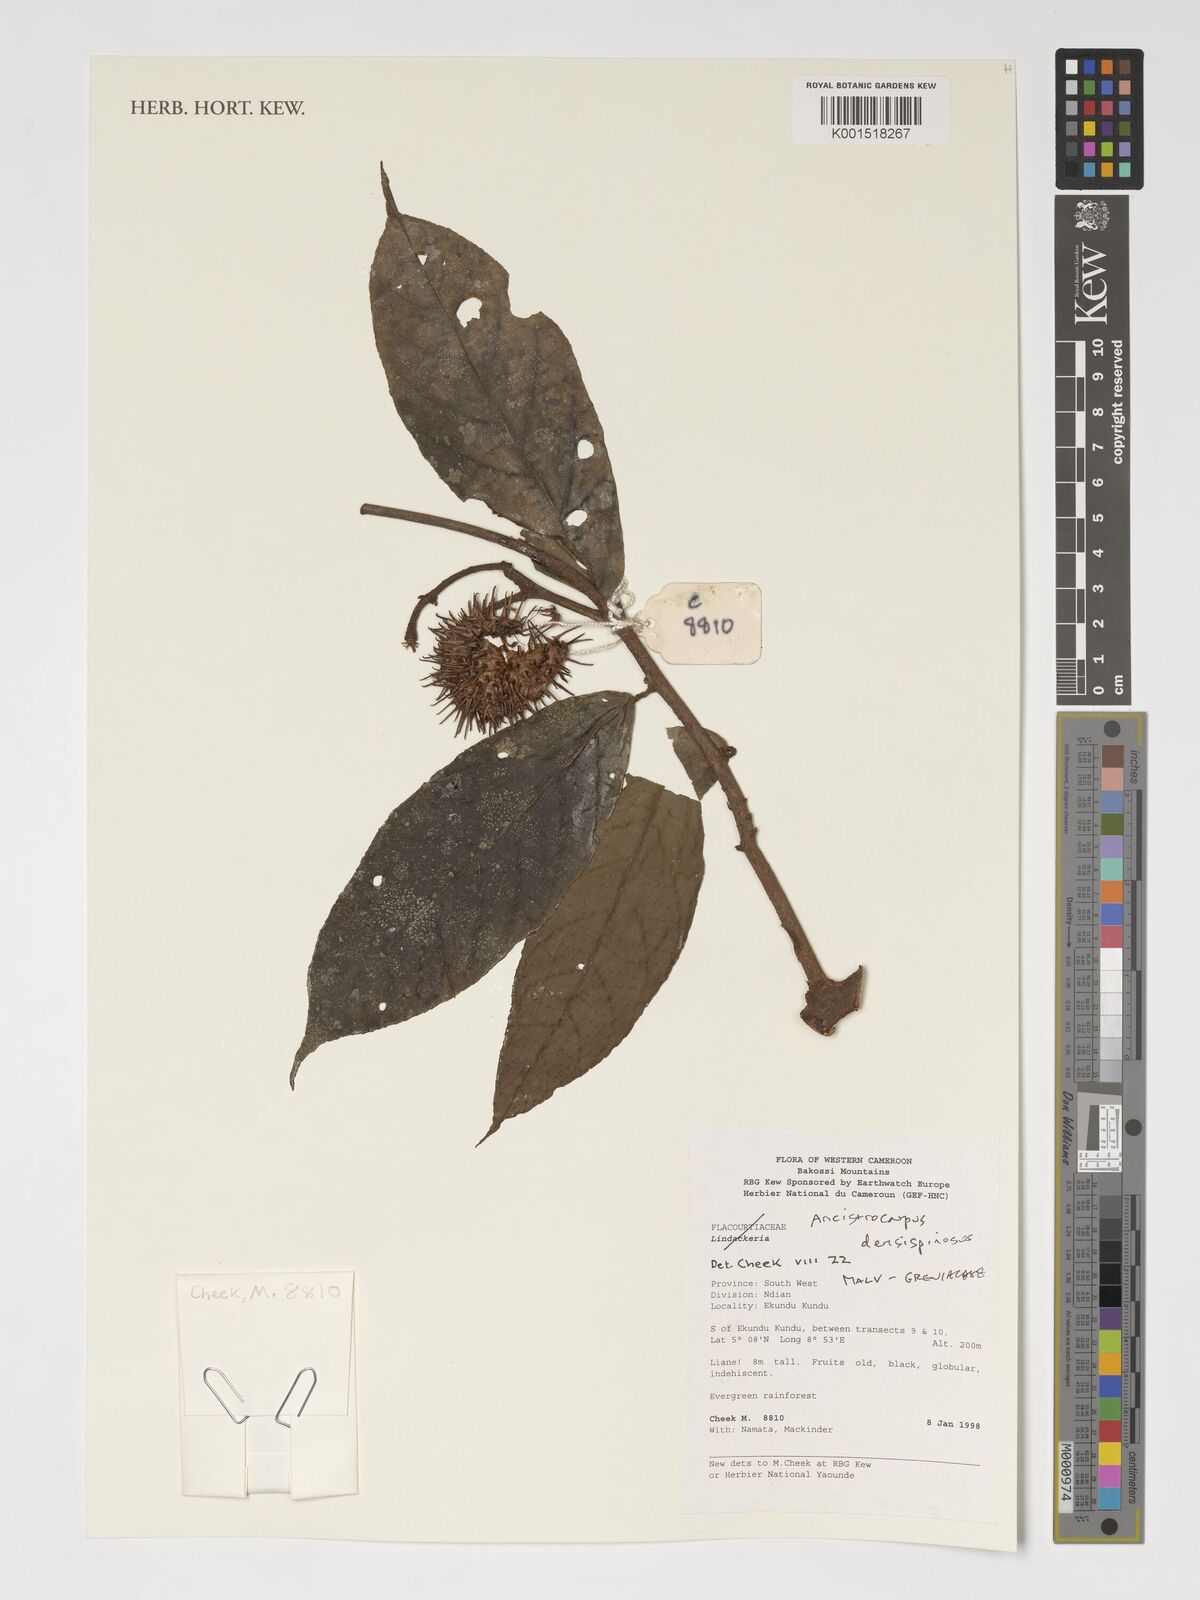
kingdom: Plantae
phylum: Tracheophyta
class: Magnoliopsida
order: Malvales
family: Malvaceae
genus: Ancistrocarpus
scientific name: Ancistrocarpus densispinosus
